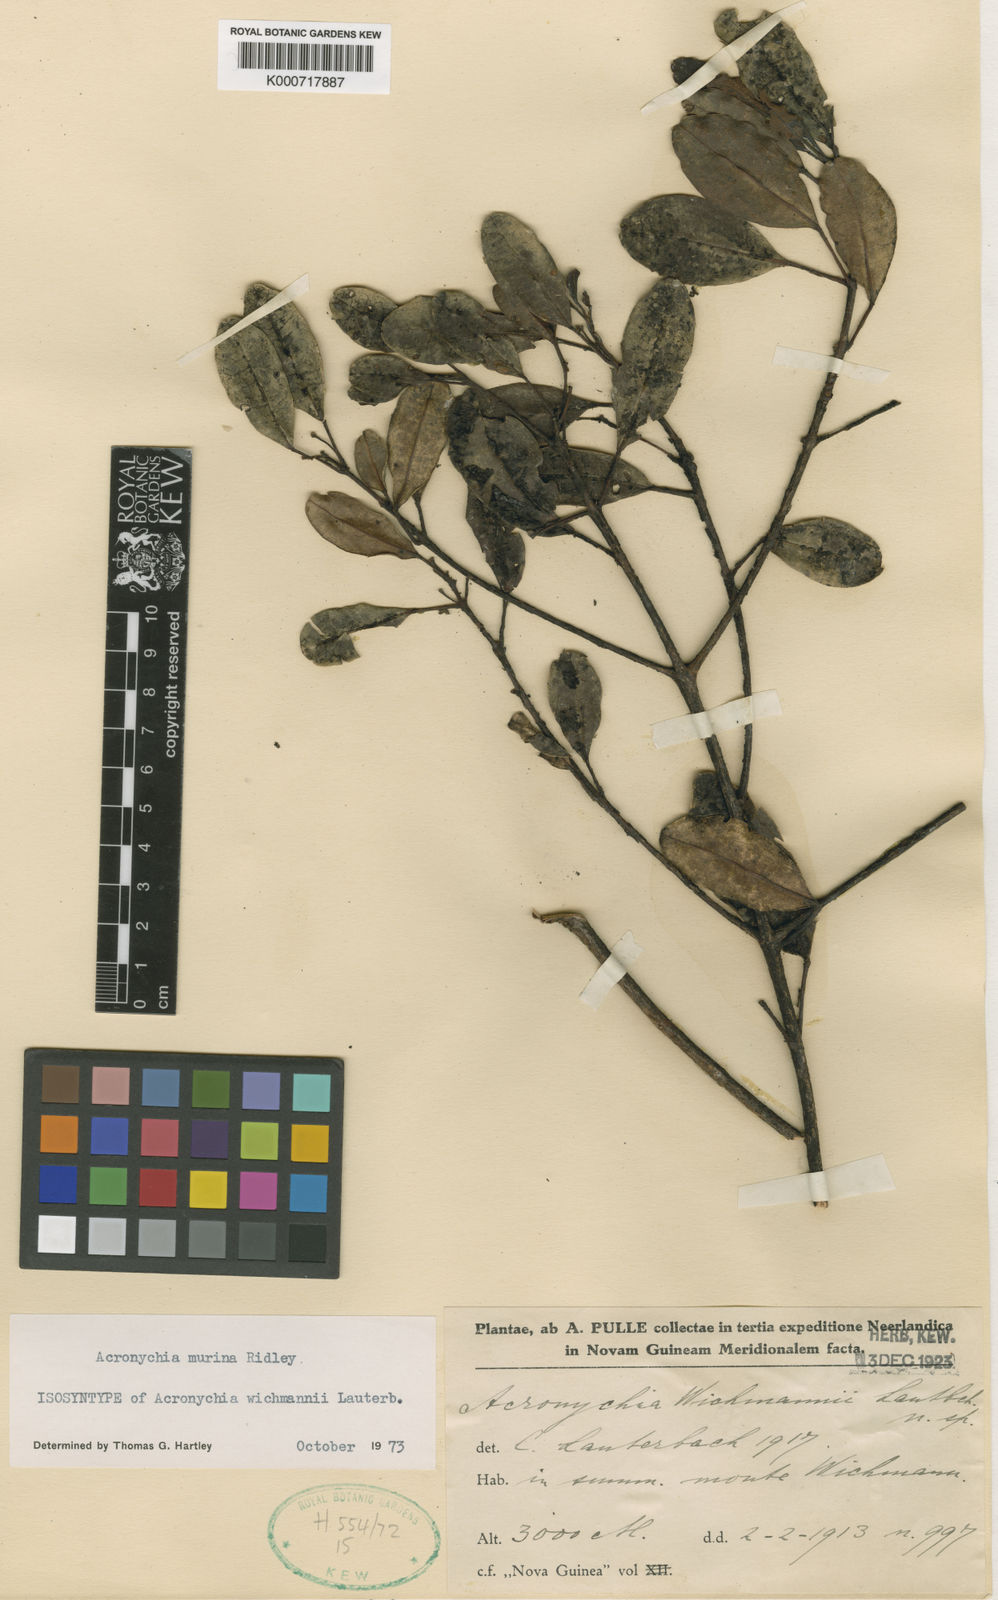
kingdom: Plantae
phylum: Tracheophyta
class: Magnoliopsida
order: Sapindales
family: Rutaceae
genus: Acronychia
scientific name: Acronychia murina
